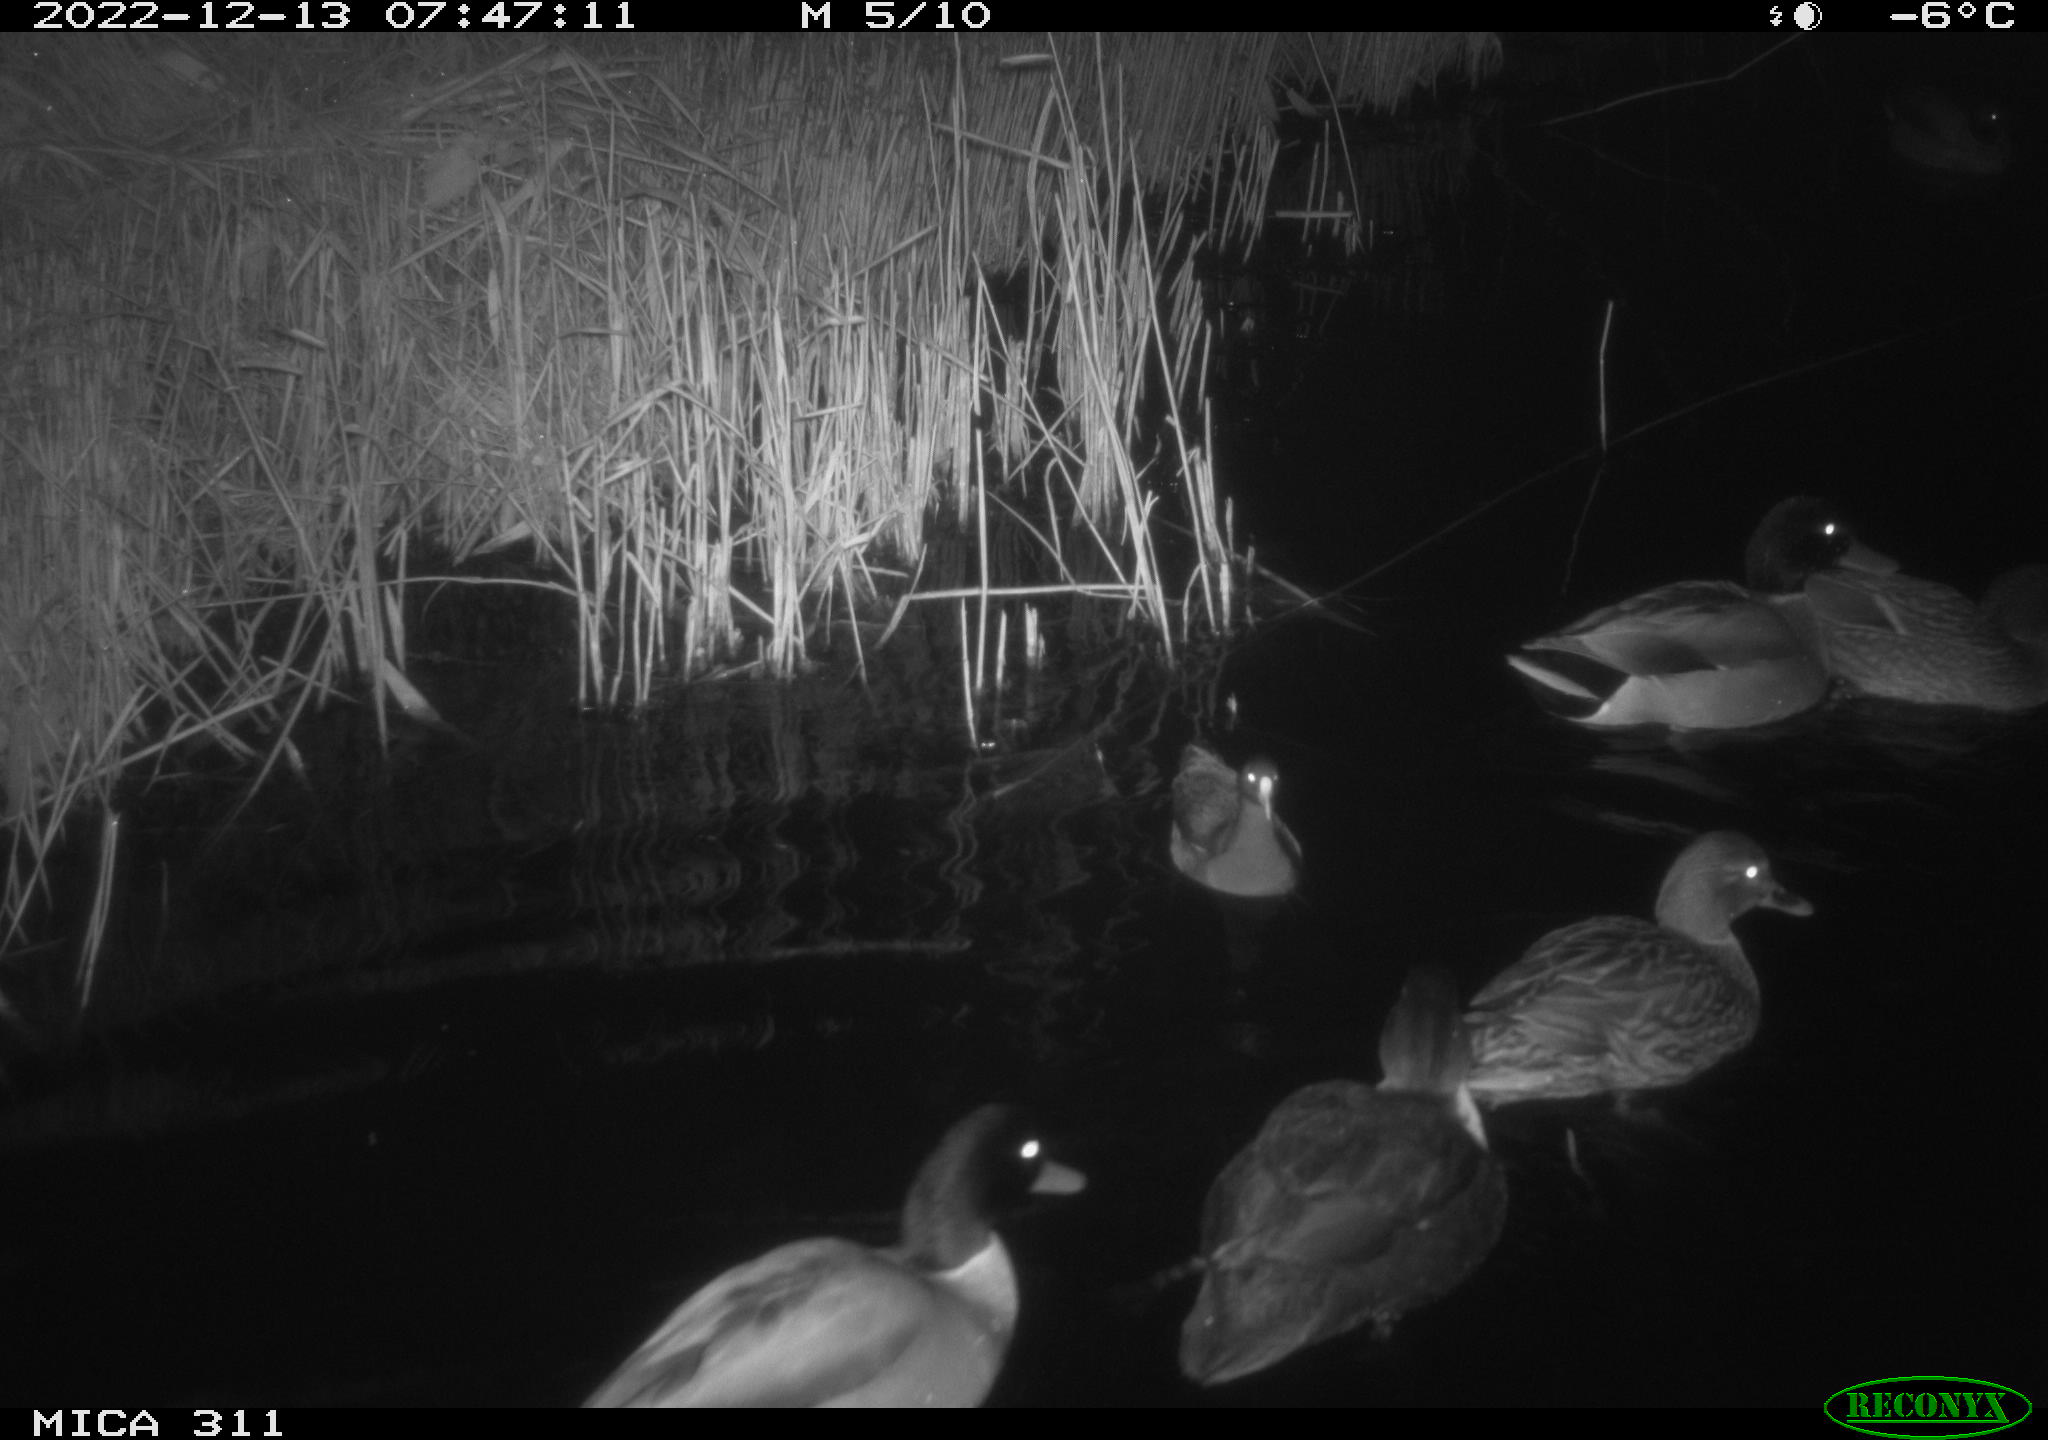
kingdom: Animalia
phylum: Chordata
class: Aves
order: Gruiformes
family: Rallidae
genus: Fulica
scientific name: Fulica atra
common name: Eurasian coot
